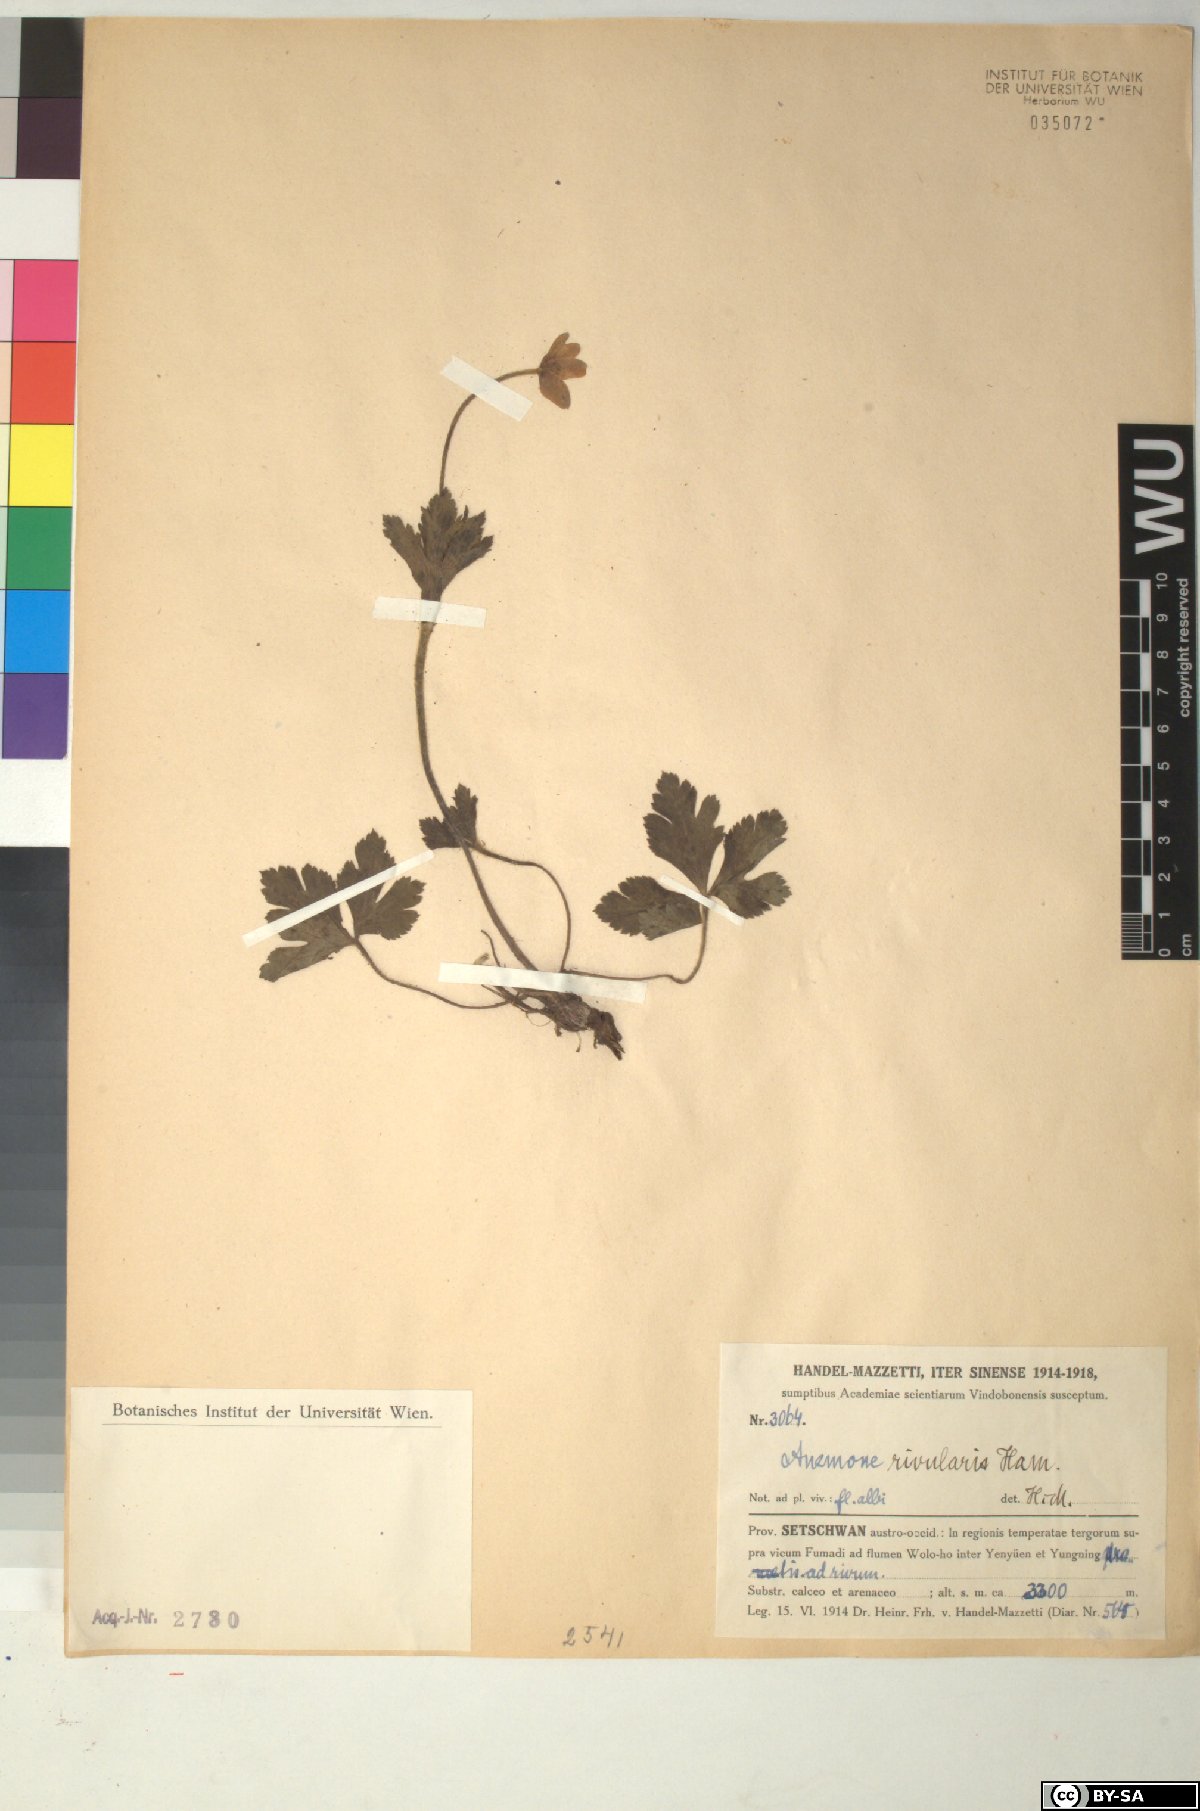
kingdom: Plantae
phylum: Tracheophyta
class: Magnoliopsida
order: Ranunculales
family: Ranunculaceae
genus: Eriocapitella
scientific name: Eriocapitella rivularis
